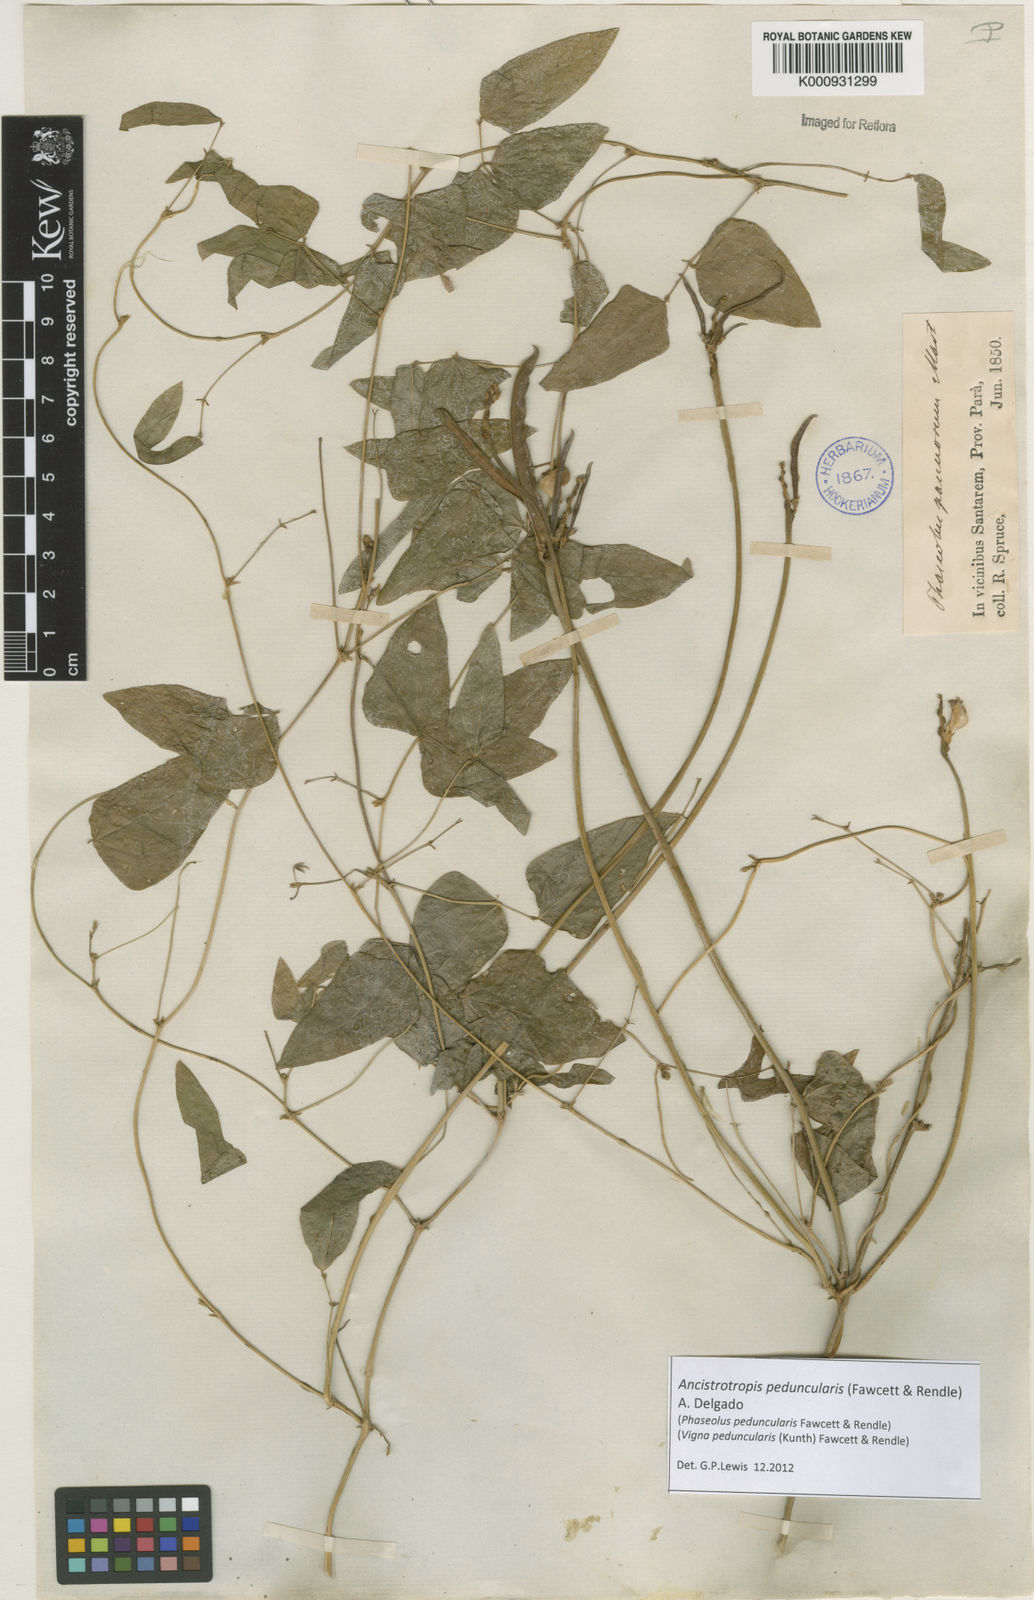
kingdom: Plantae
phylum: Tracheophyta
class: Magnoliopsida
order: Fabales
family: Fabaceae
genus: Ancistrotropis
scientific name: Ancistrotropis peduncularis
